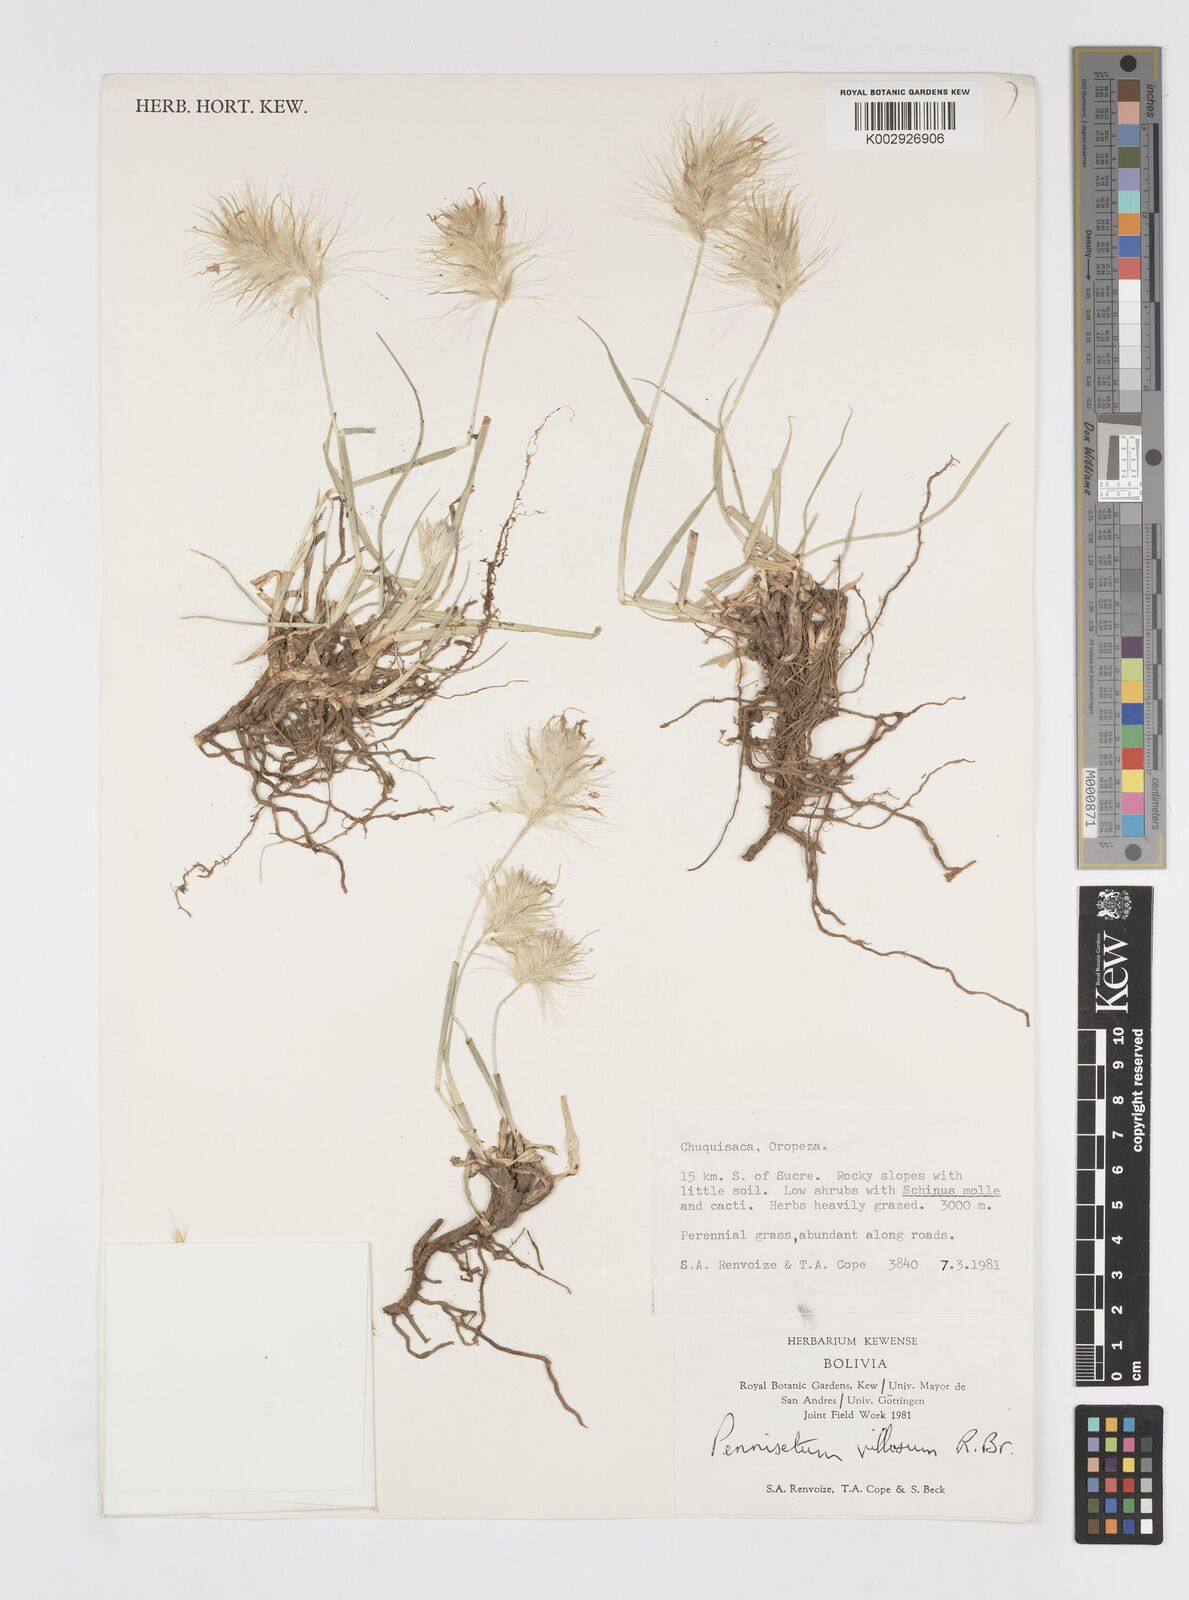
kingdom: Plantae
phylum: Tracheophyta
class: Liliopsida
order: Poales
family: Poaceae
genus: Cenchrus
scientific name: Cenchrus longisetus
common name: Feathertop
